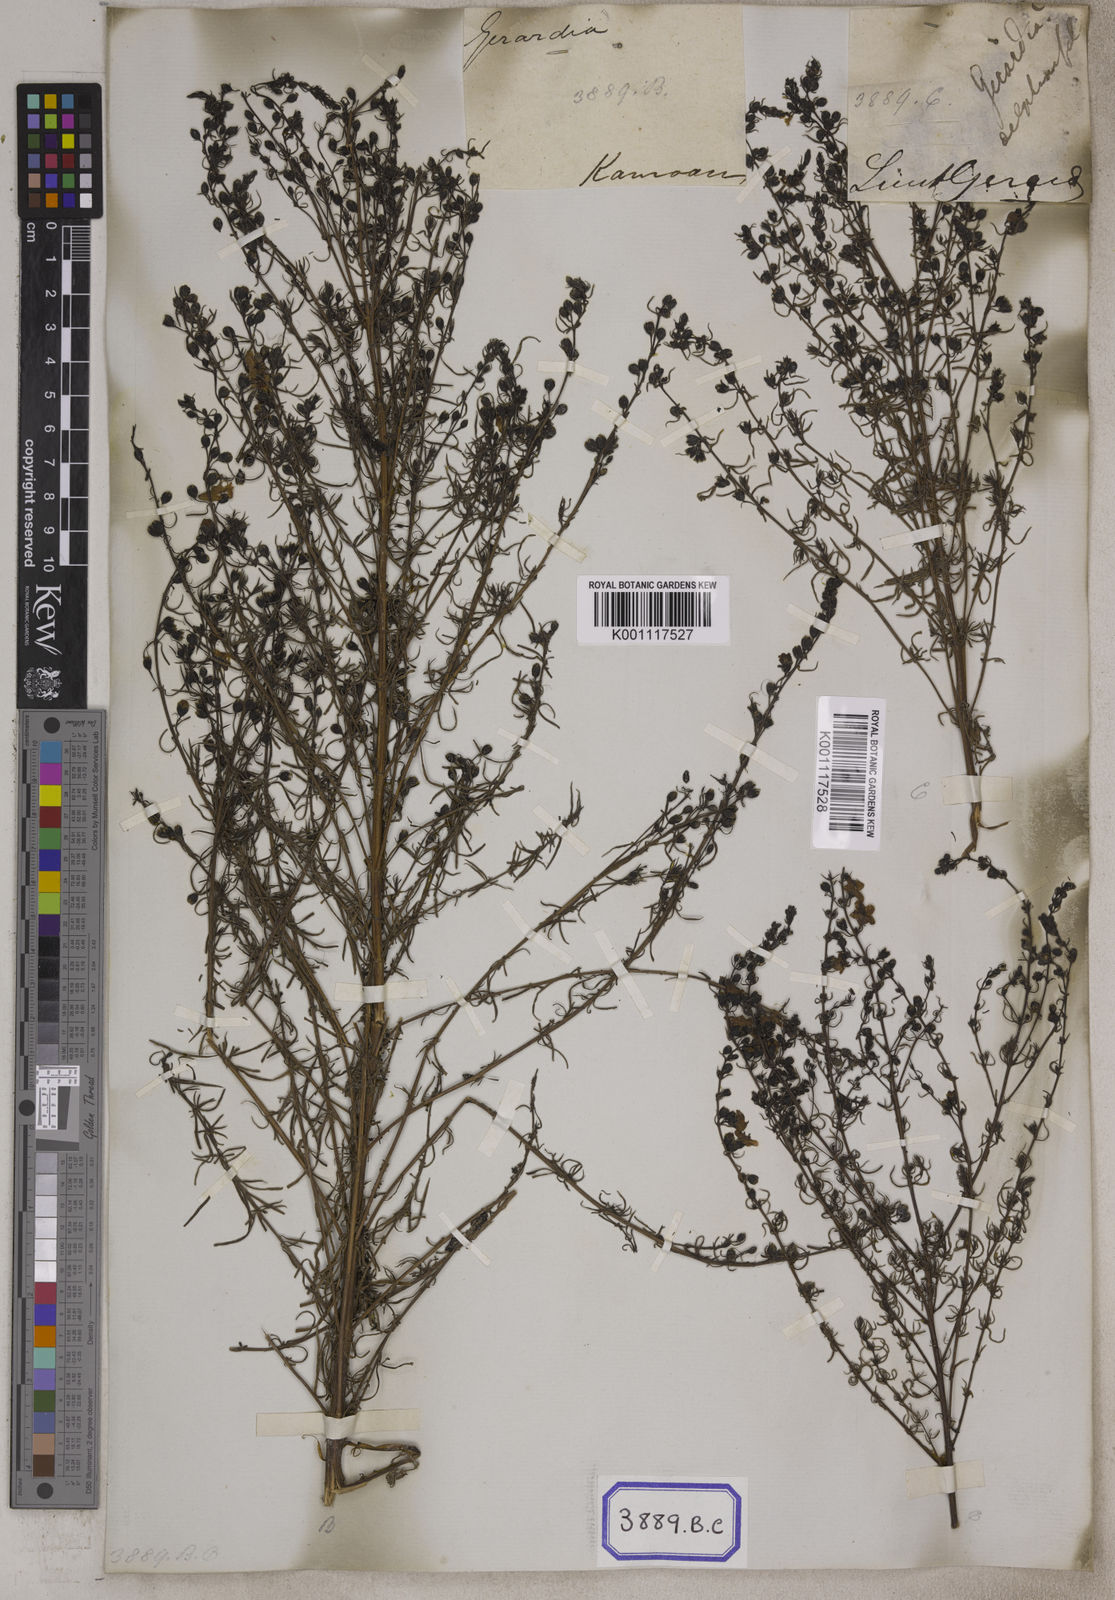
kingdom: Plantae
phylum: Tracheophyta
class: Magnoliopsida
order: Lamiales
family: Acanthaceae
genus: Stenandrium
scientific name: Stenandrium
